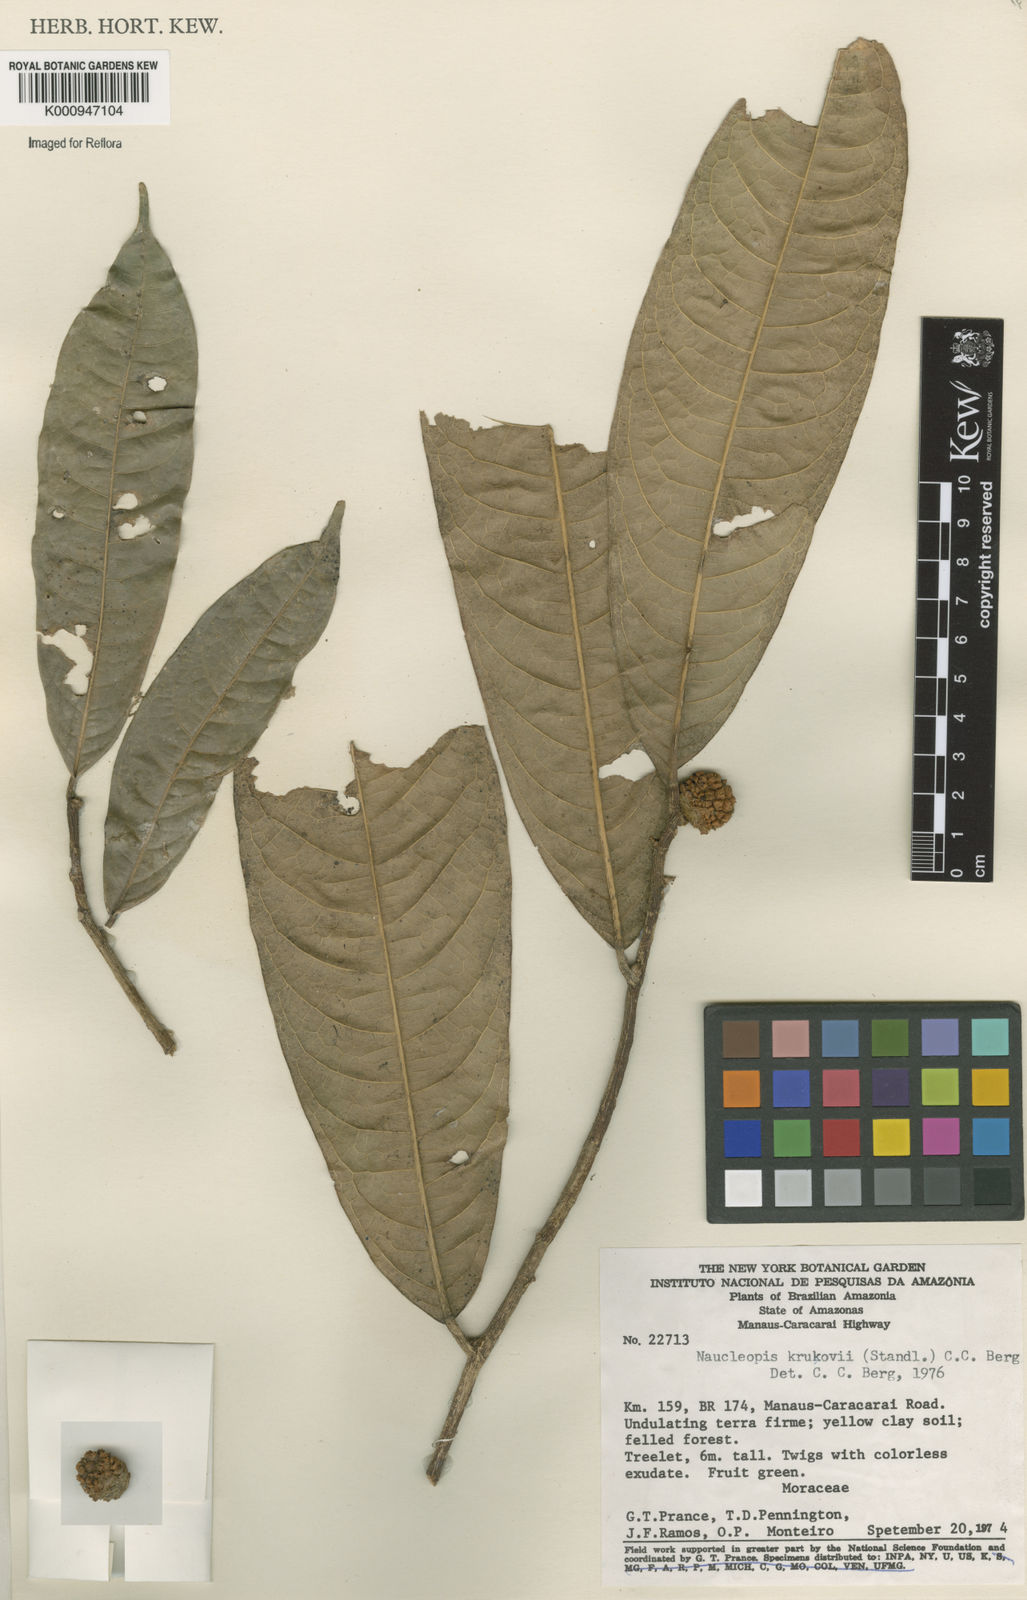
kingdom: Plantae
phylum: Tracheophyta
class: Magnoliopsida
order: Rosales
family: Moraceae
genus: Naucleopsis
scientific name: Naucleopsis krukovii
